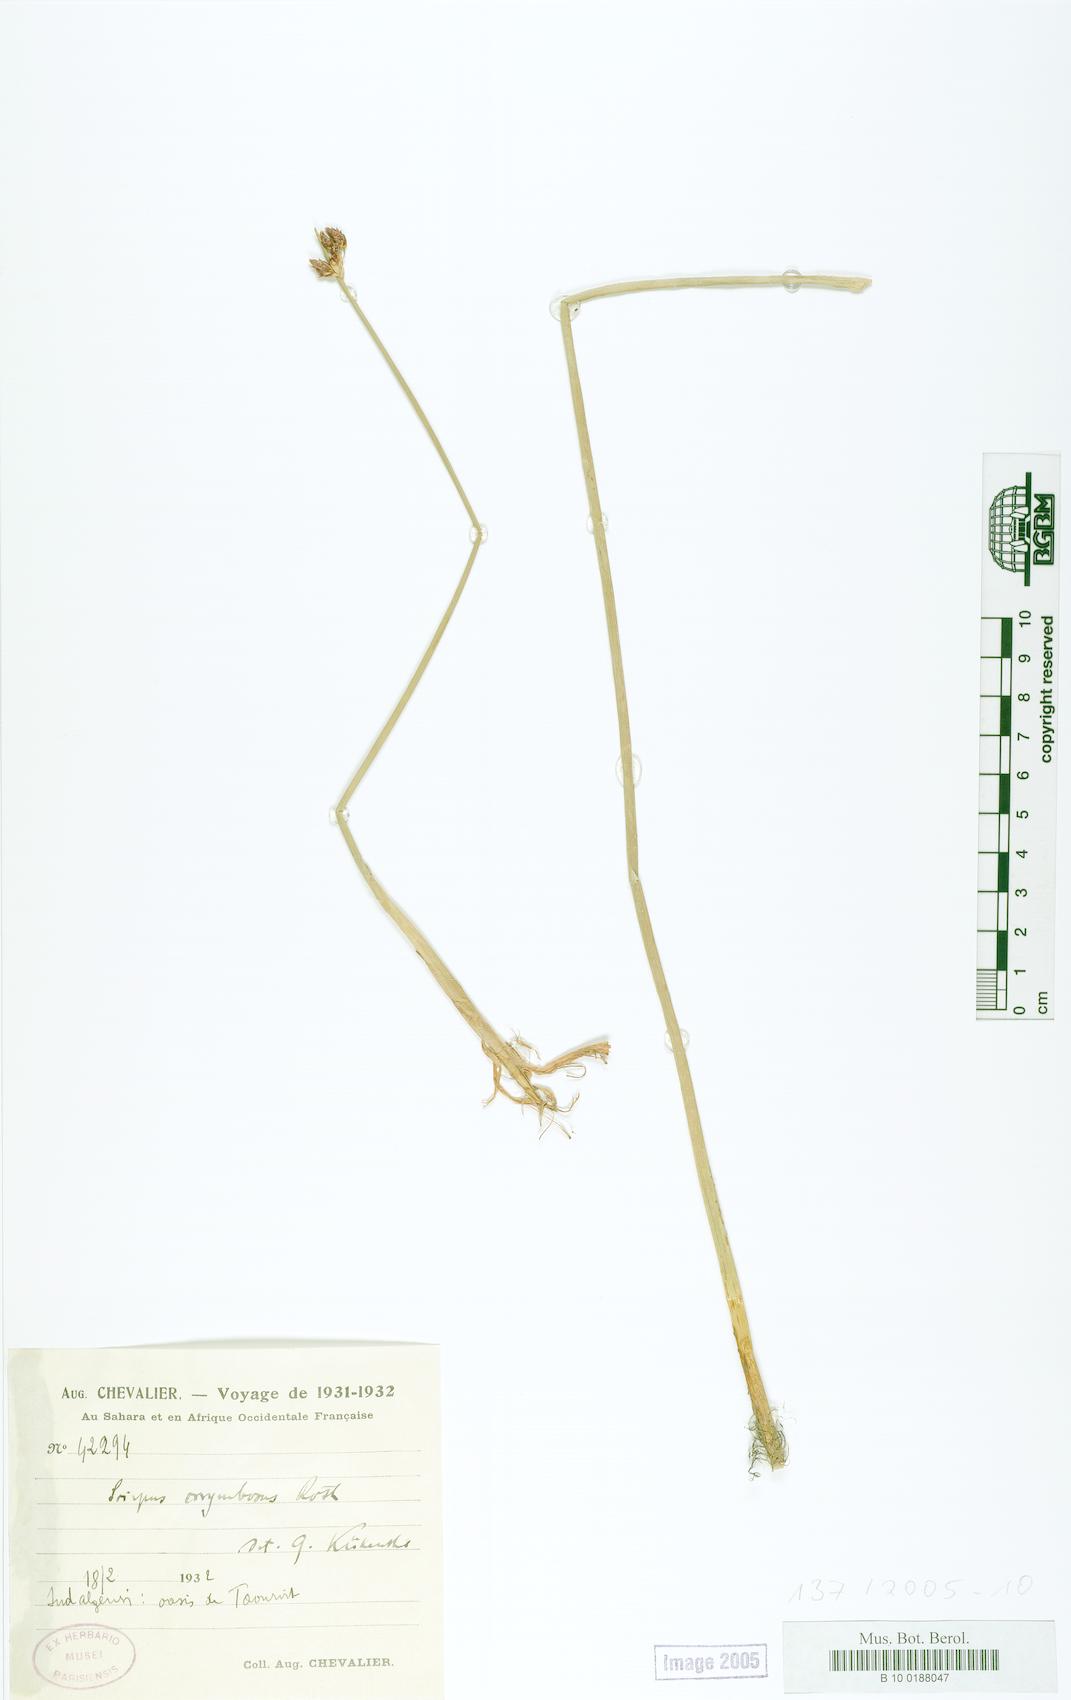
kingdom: Plantae
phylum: Tracheophyta
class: Liliopsida
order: Poales
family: Cyperaceae
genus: Scirpus
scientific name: Scirpus corymbosus
